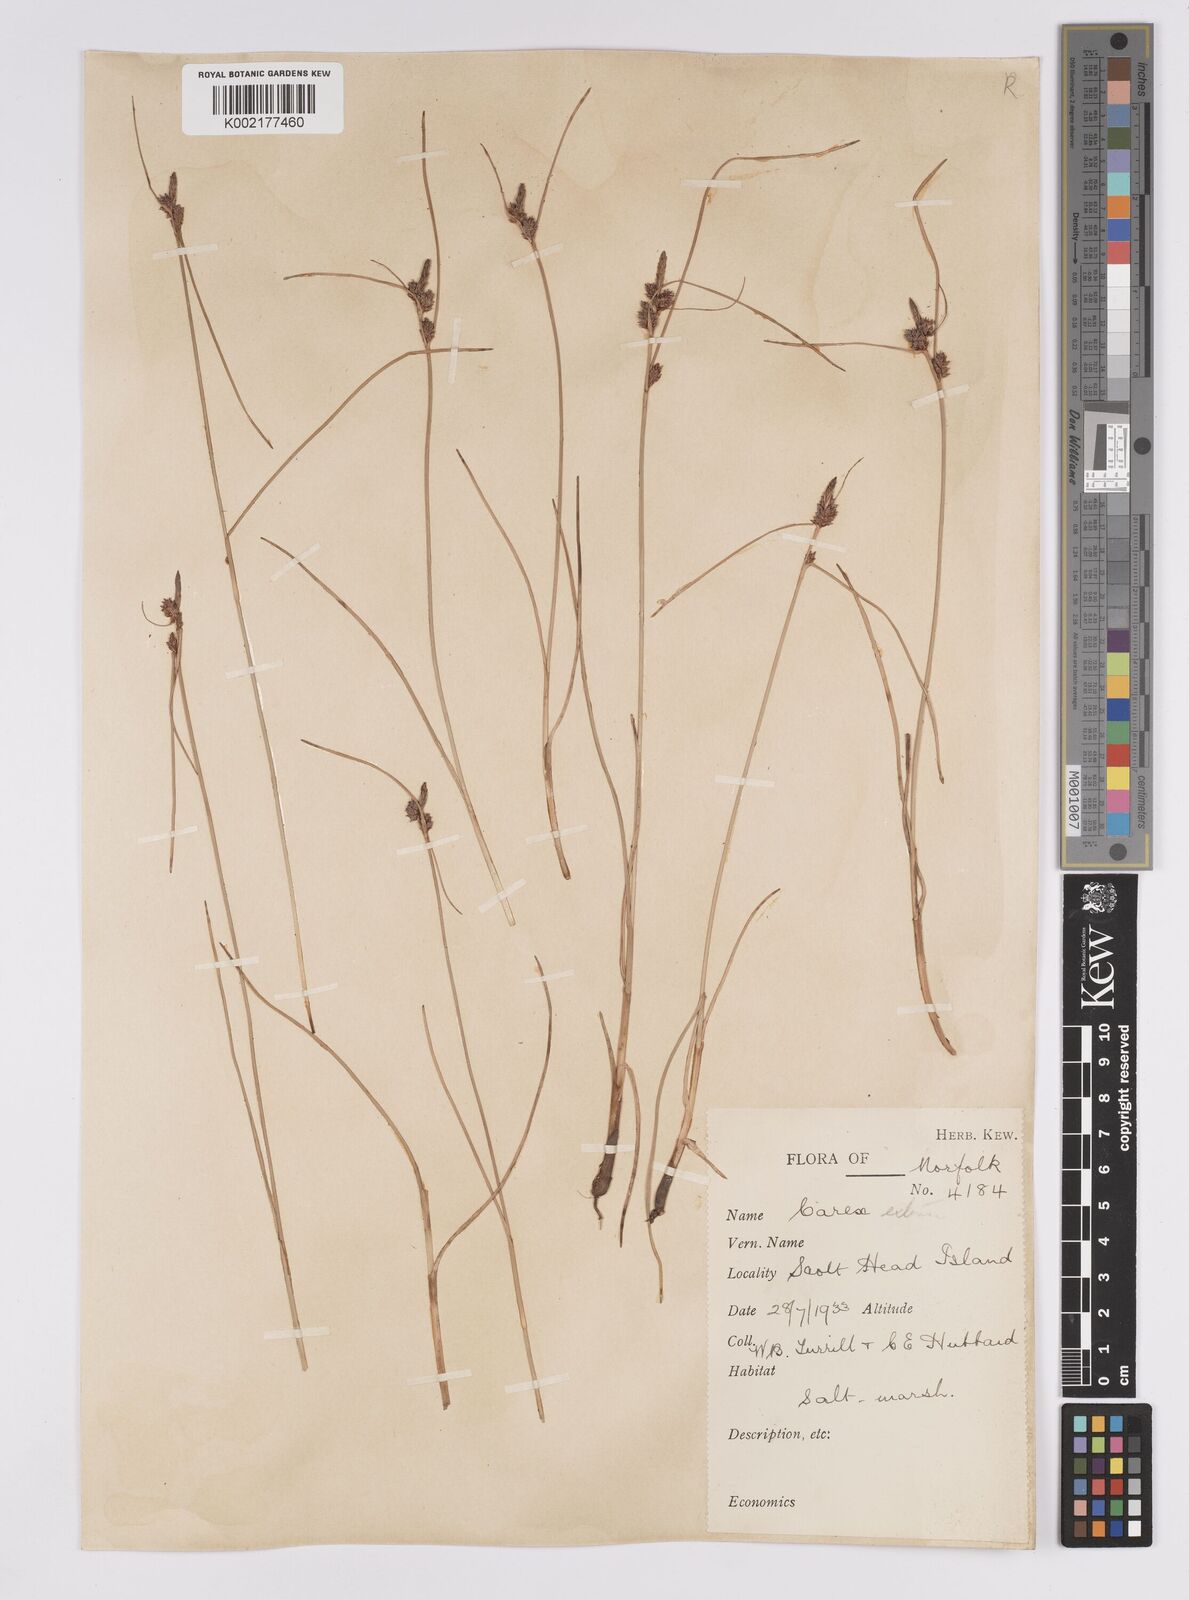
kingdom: Plantae
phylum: Tracheophyta
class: Liliopsida
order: Poales
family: Cyperaceae
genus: Carex
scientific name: Carex extensa
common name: Long-bracted sedge
